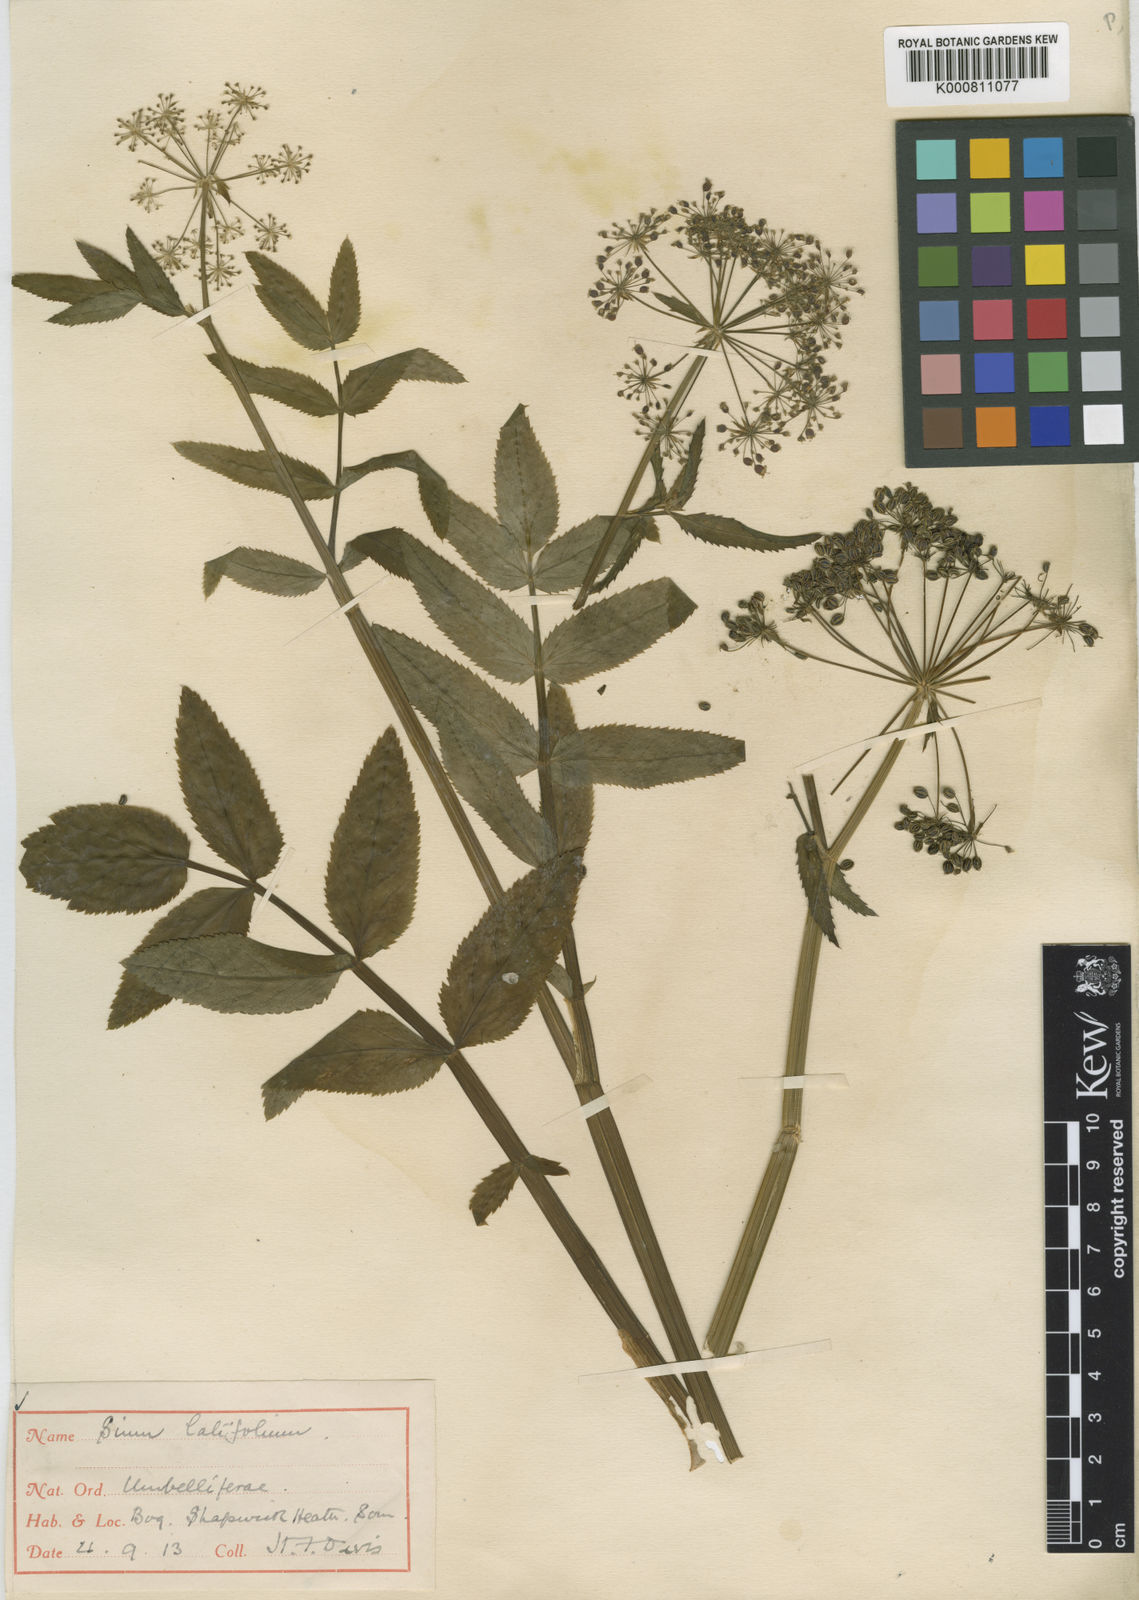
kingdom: Plantae
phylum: Tracheophyta
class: Magnoliopsida
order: Apiales
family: Apiaceae
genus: Sium
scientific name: Sium latifolium
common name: Greater water-parsnip
